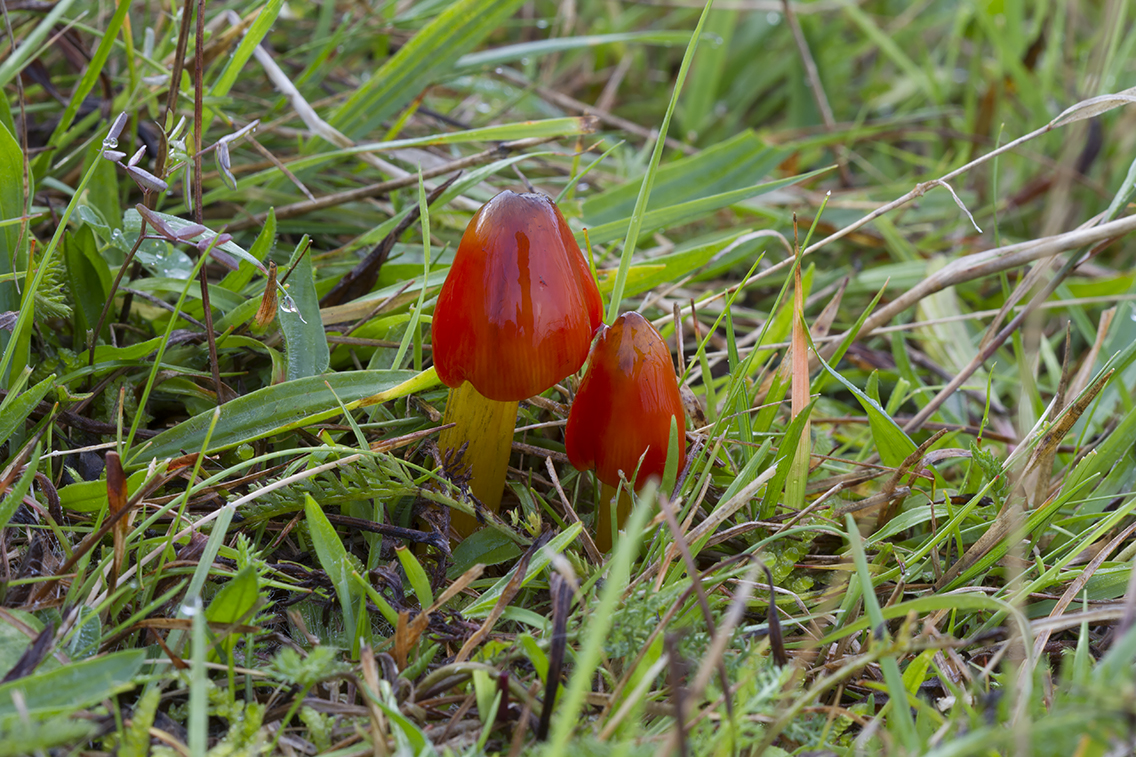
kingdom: Fungi
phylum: Basidiomycota
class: Agaricomycetes
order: Agaricales
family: Hygrophoraceae
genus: Hygrocybe
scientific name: Hygrocybe conica
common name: kegle-vokshat
